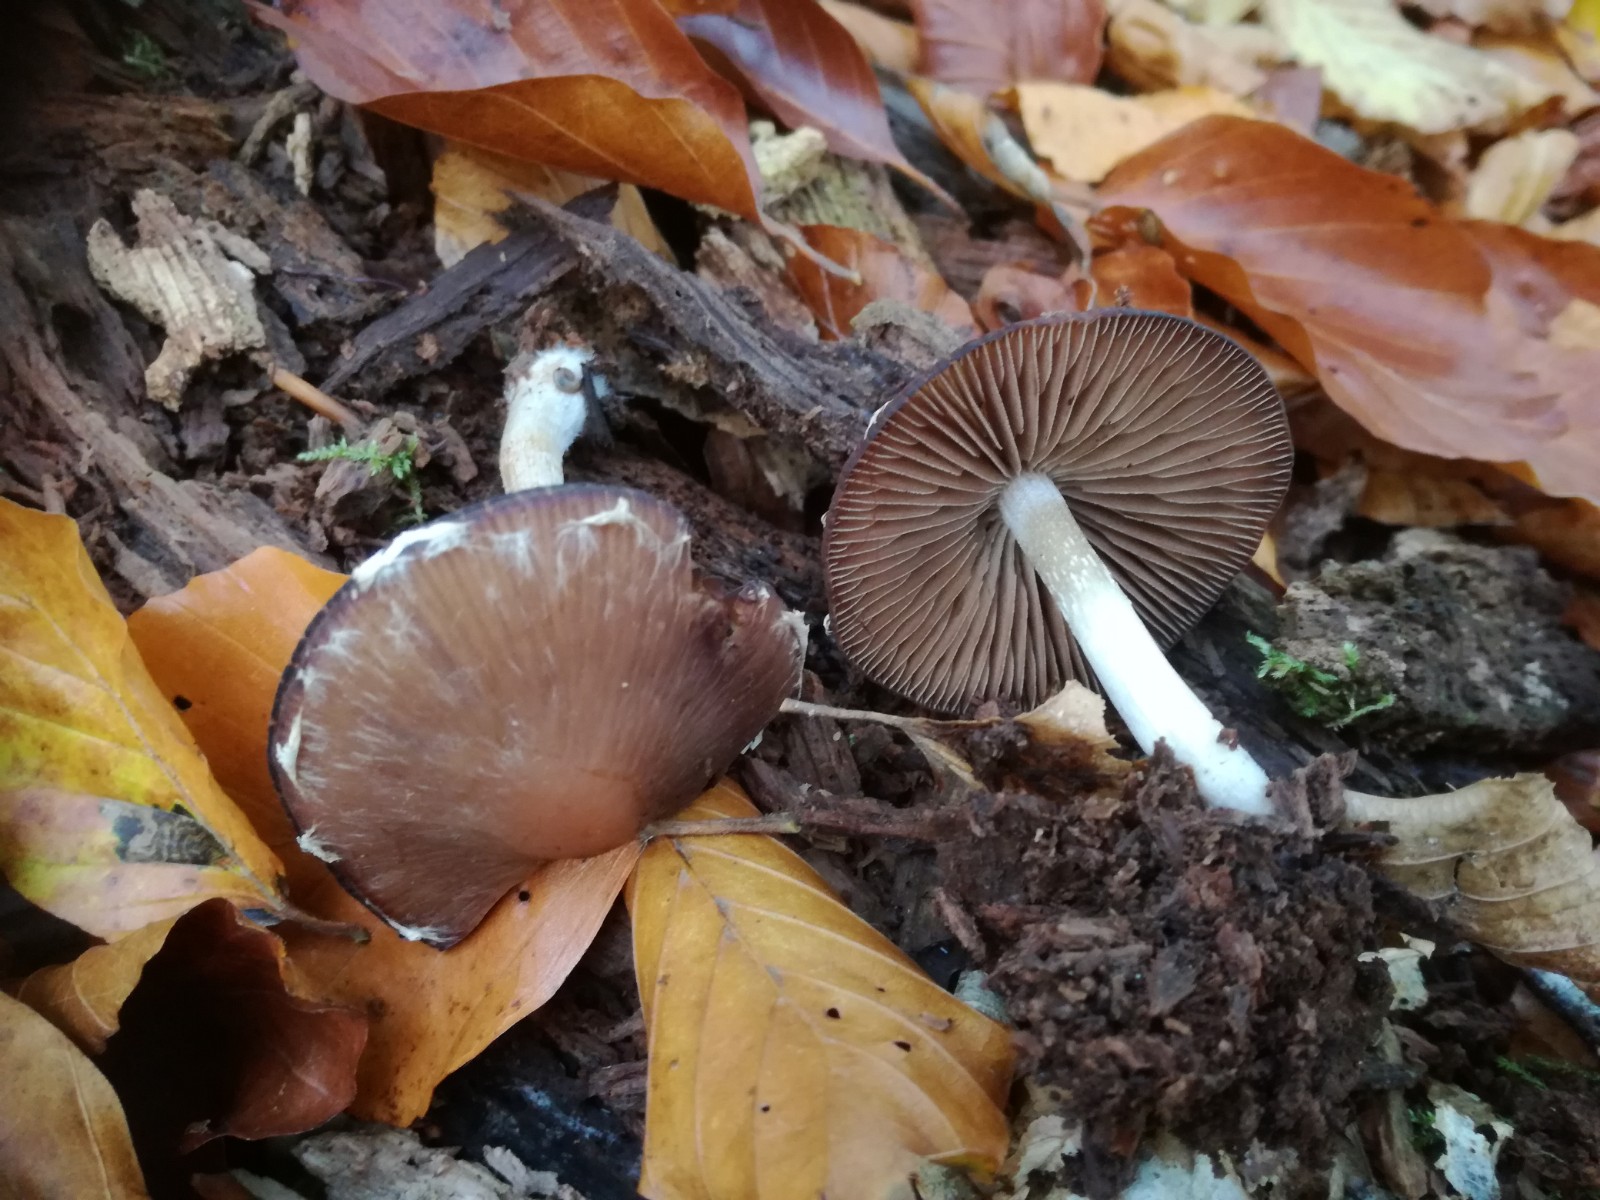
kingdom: Fungi
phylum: Basidiomycota
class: Agaricomycetes
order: Agaricales
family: Psathyrellaceae
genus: Psathyrella
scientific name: Psathyrella rostellata
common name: næbbet mørkhat
